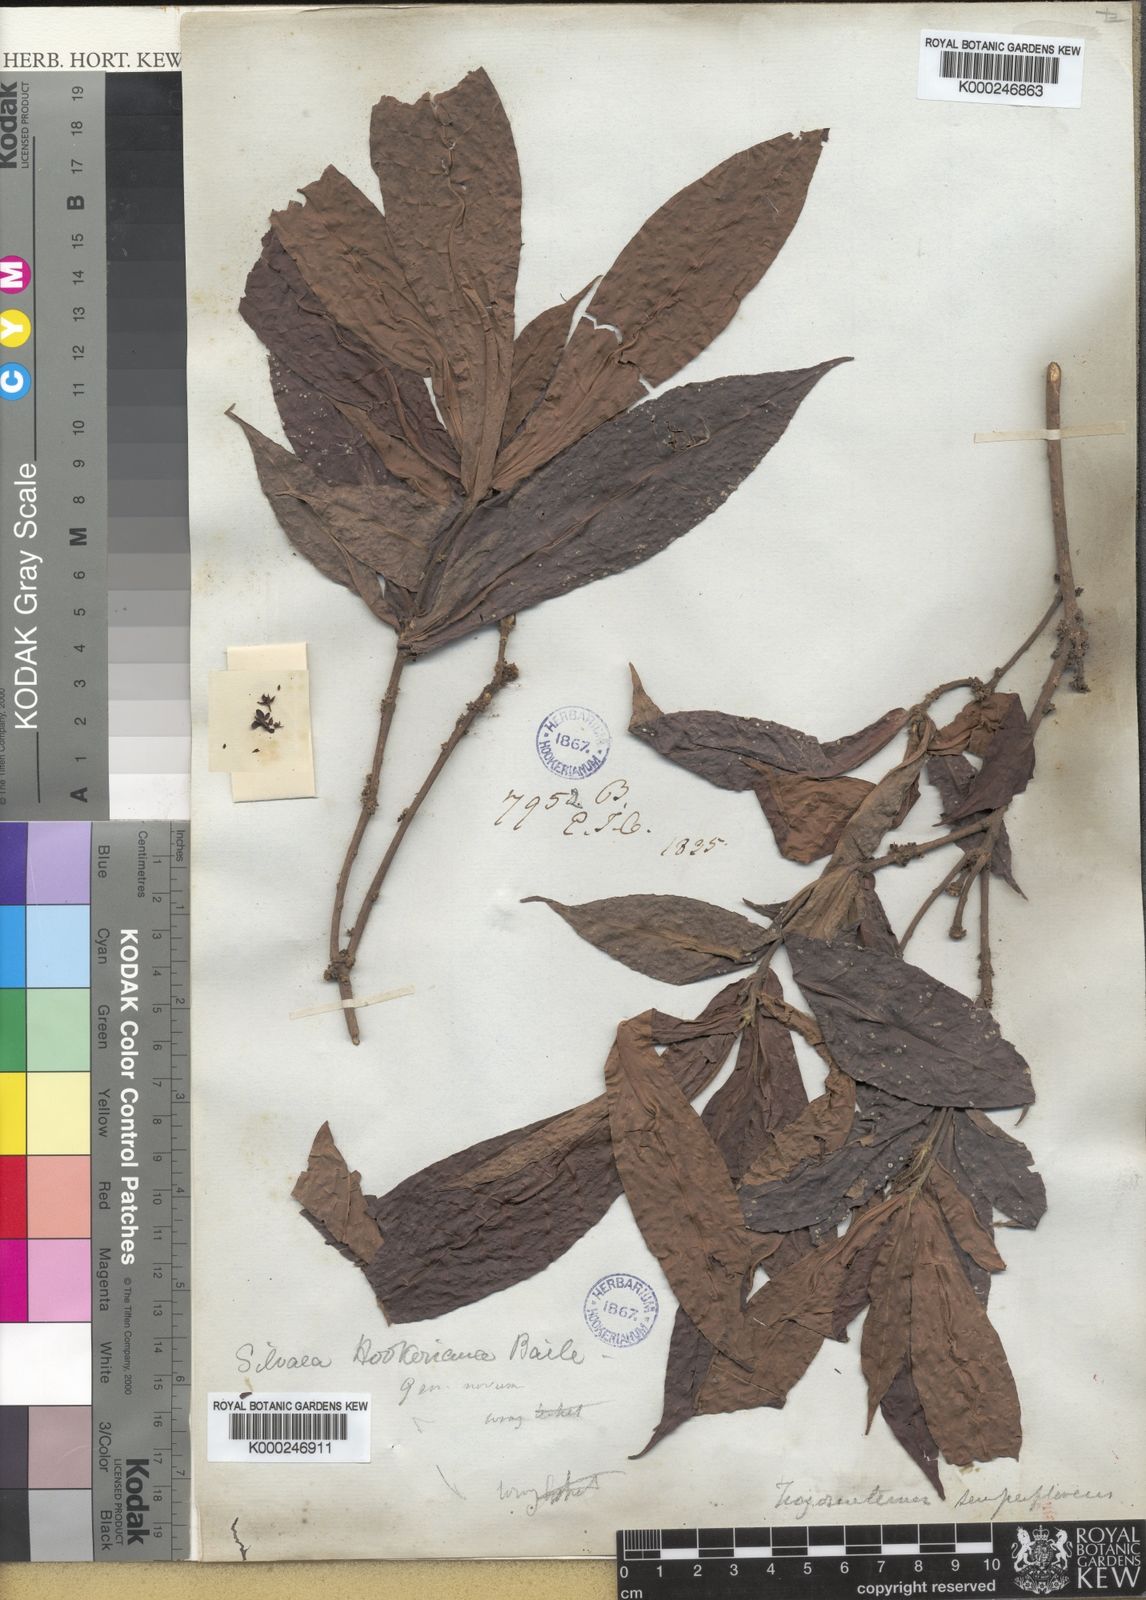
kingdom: Plantae
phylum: Tracheophyta
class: Magnoliopsida
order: Malpighiales
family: Euphorbiaceae
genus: Trigonostemon
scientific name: Trigonostemon
